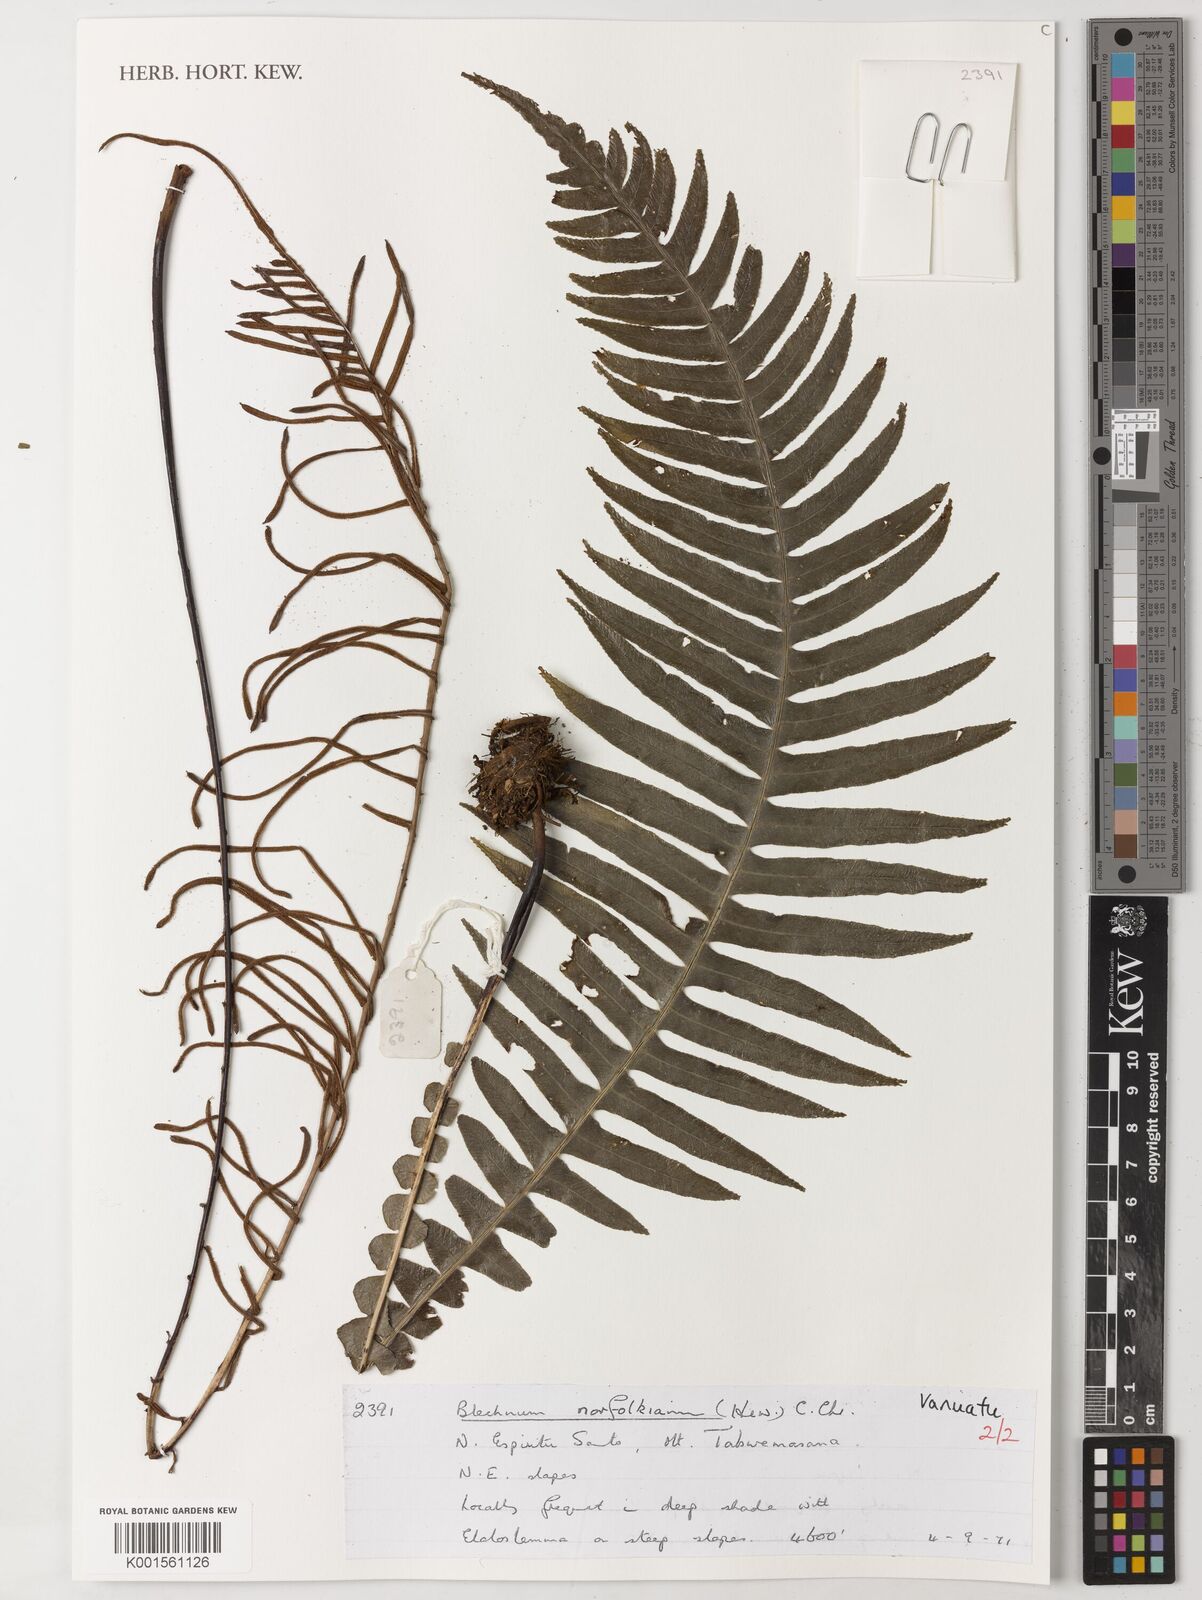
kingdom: Plantae
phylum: Tracheophyta
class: Polypodiopsida
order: Polypodiales
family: Blechnaceae
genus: Austroblechnum
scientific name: Austroblechnum norfolkianum
